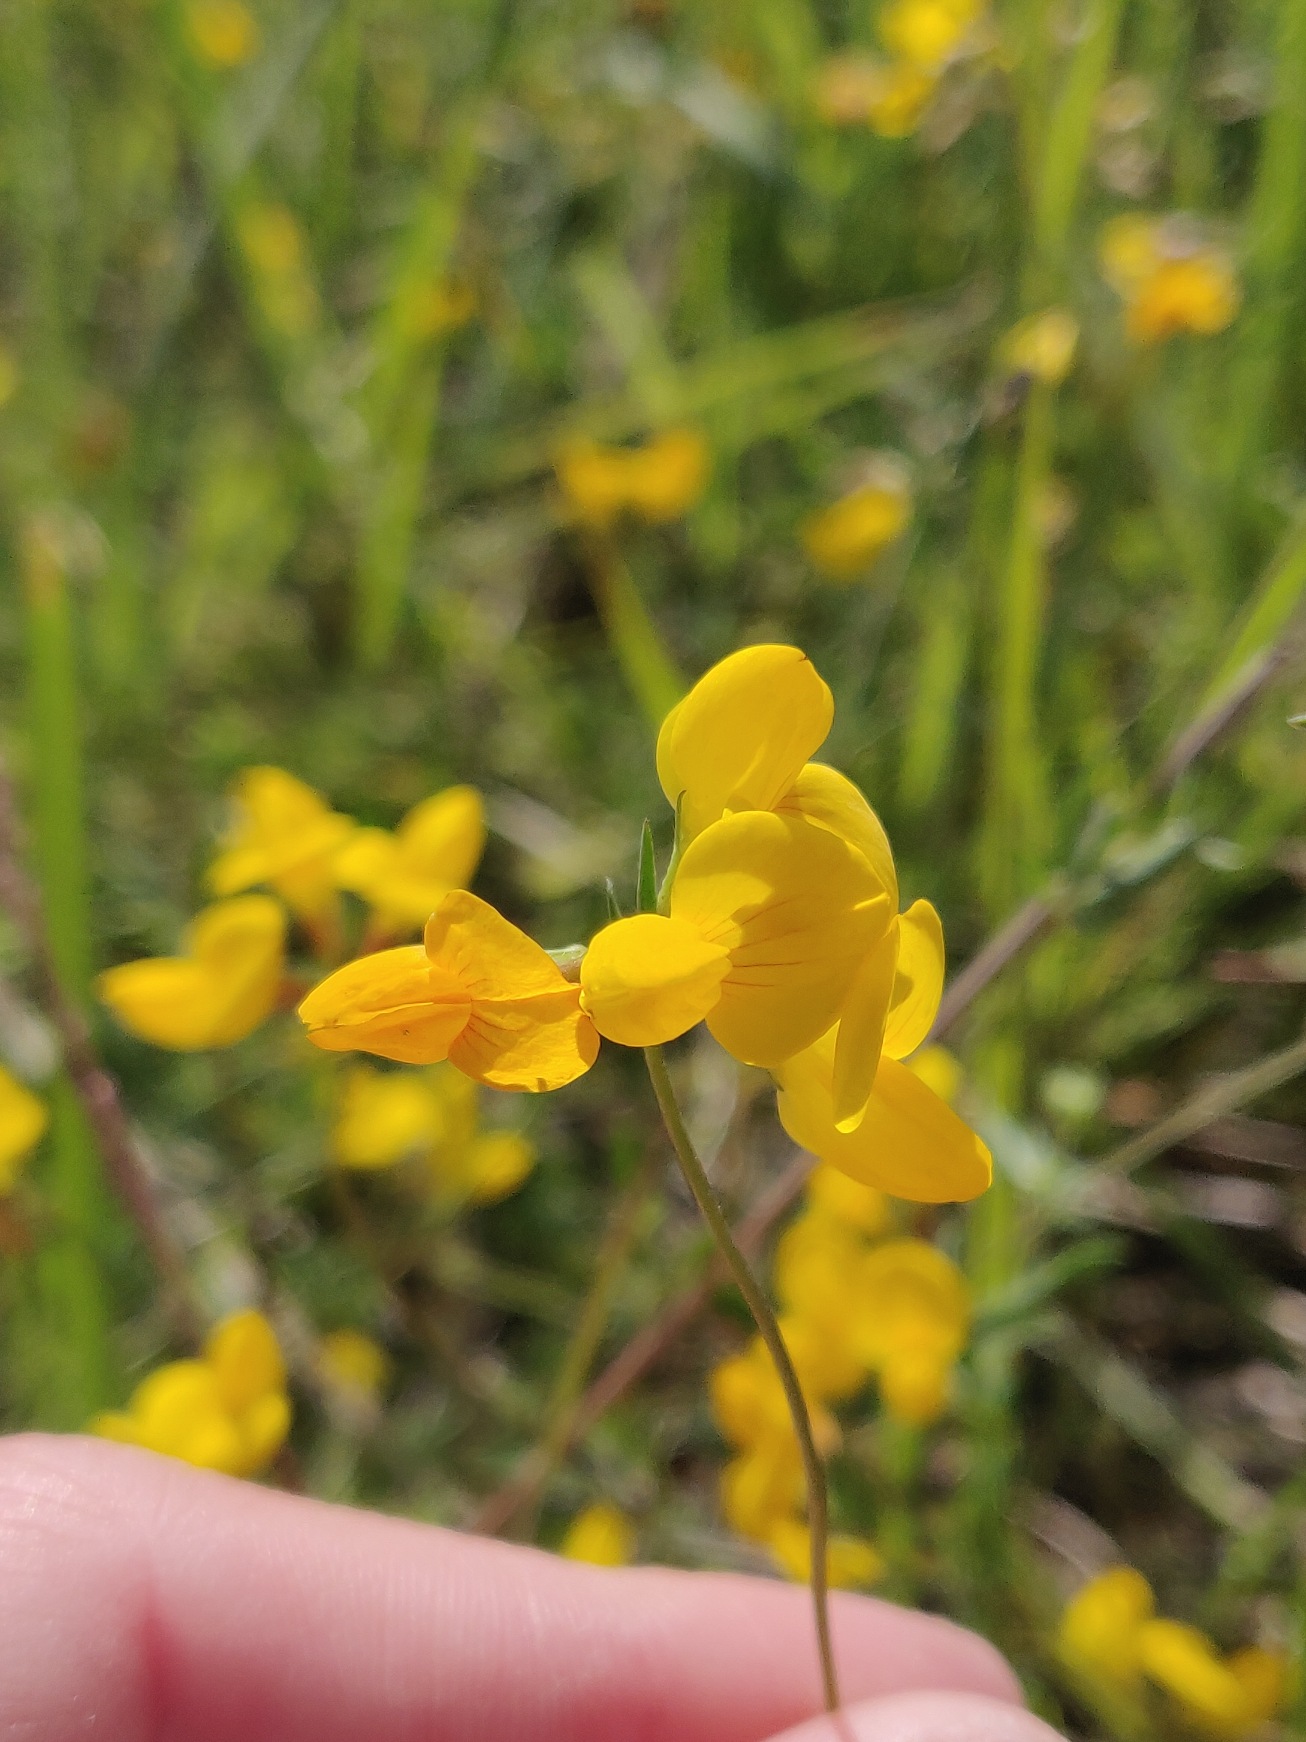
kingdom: Plantae
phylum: Tracheophyta
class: Magnoliopsida
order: Fabales
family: Fabaceae
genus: Lotus
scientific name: Lotus tenuis
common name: Smalbladet kællingetand
